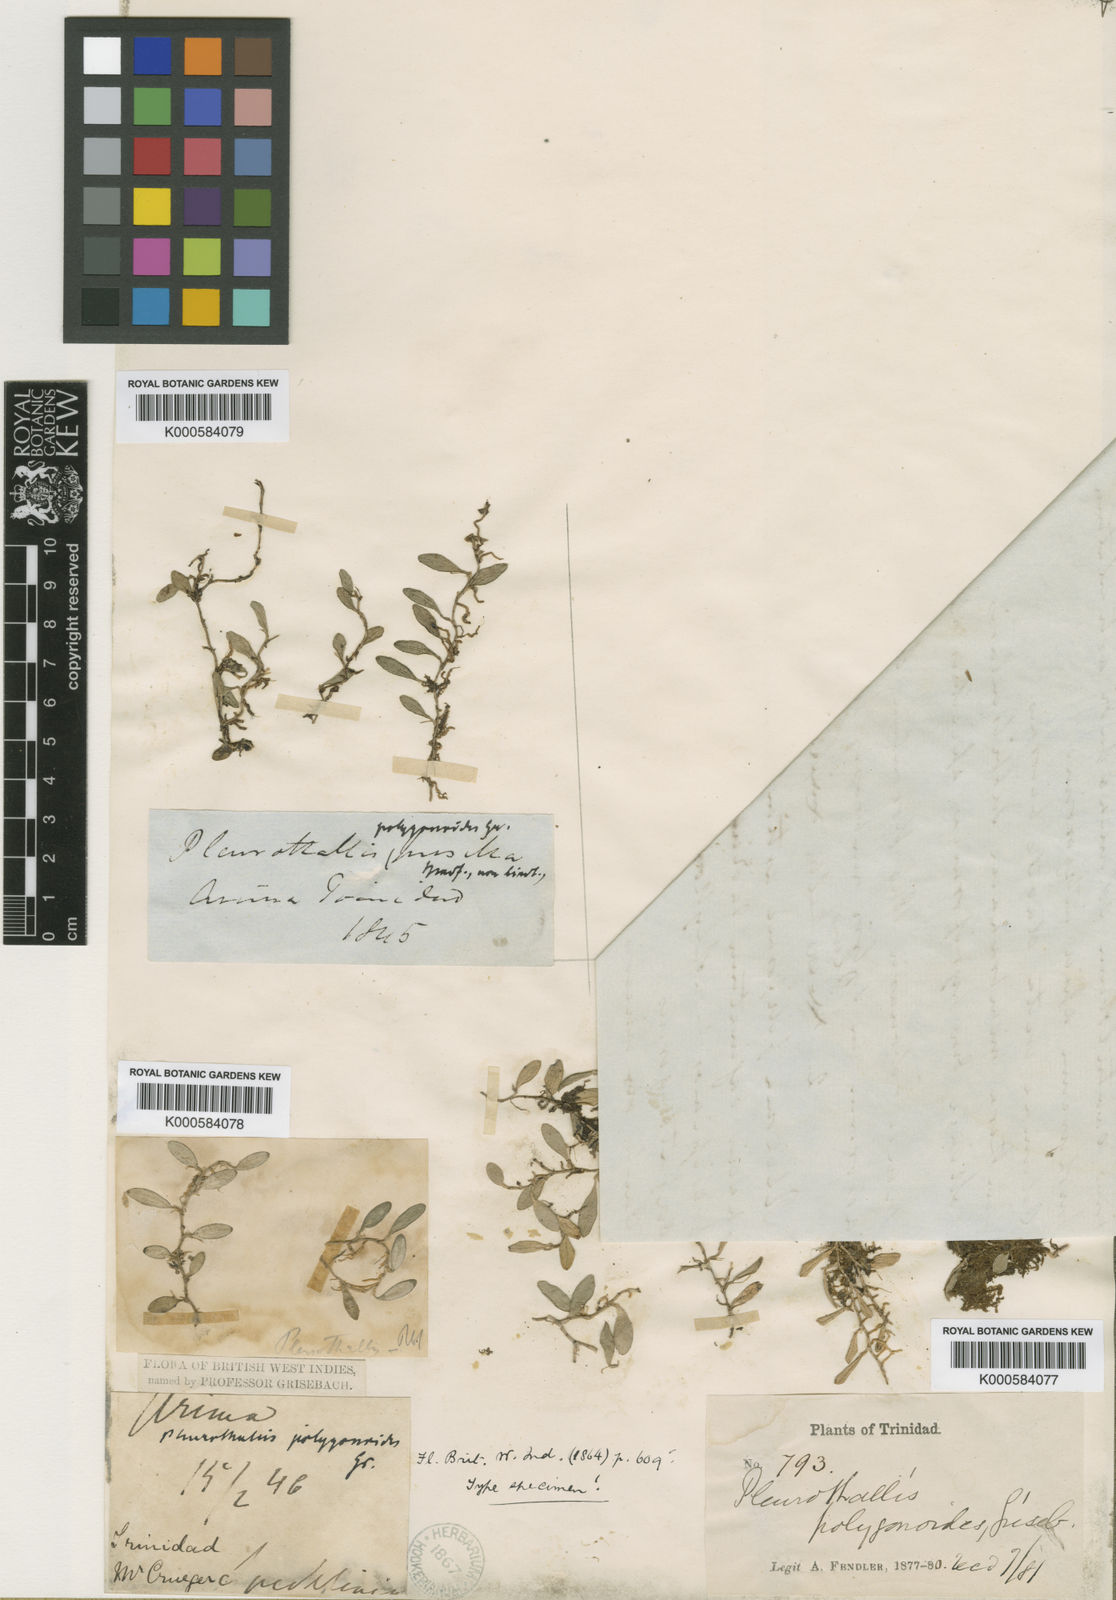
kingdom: Plantae
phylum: Tracheophyta
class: Liliopsida
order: Asparagales
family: Orchidaceae
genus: Anathallis
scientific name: Anathallis polygonoides
